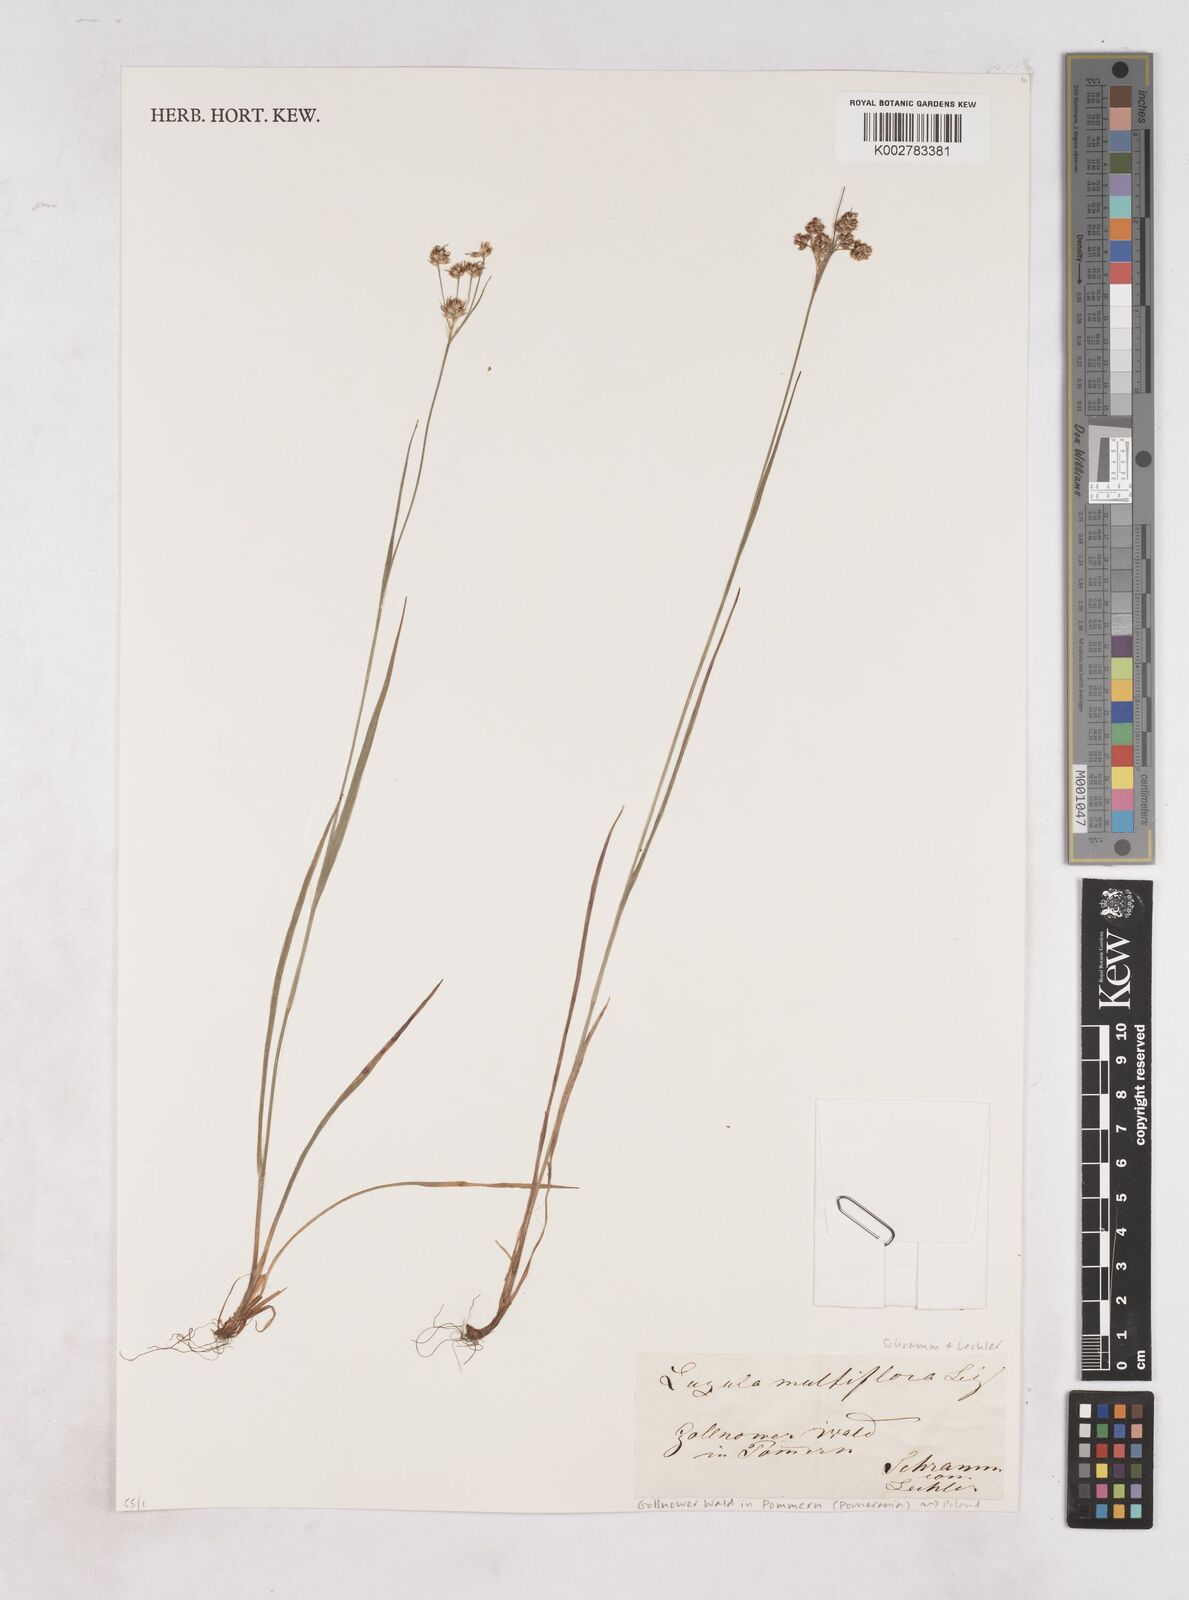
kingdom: Plantae
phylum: Tracheophyta
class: Liliopsida
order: Poales
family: Juncaceae
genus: Luzula
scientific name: Luzula multiflora
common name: Heath wood-rush
